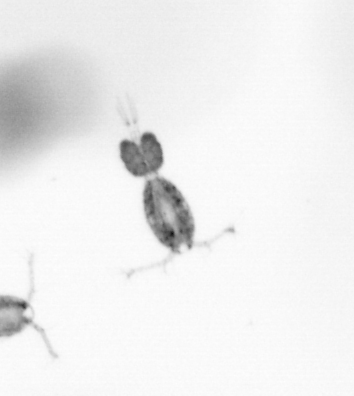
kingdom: Animalia
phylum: Arthropoda
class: Copepoda
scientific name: Copepoda
